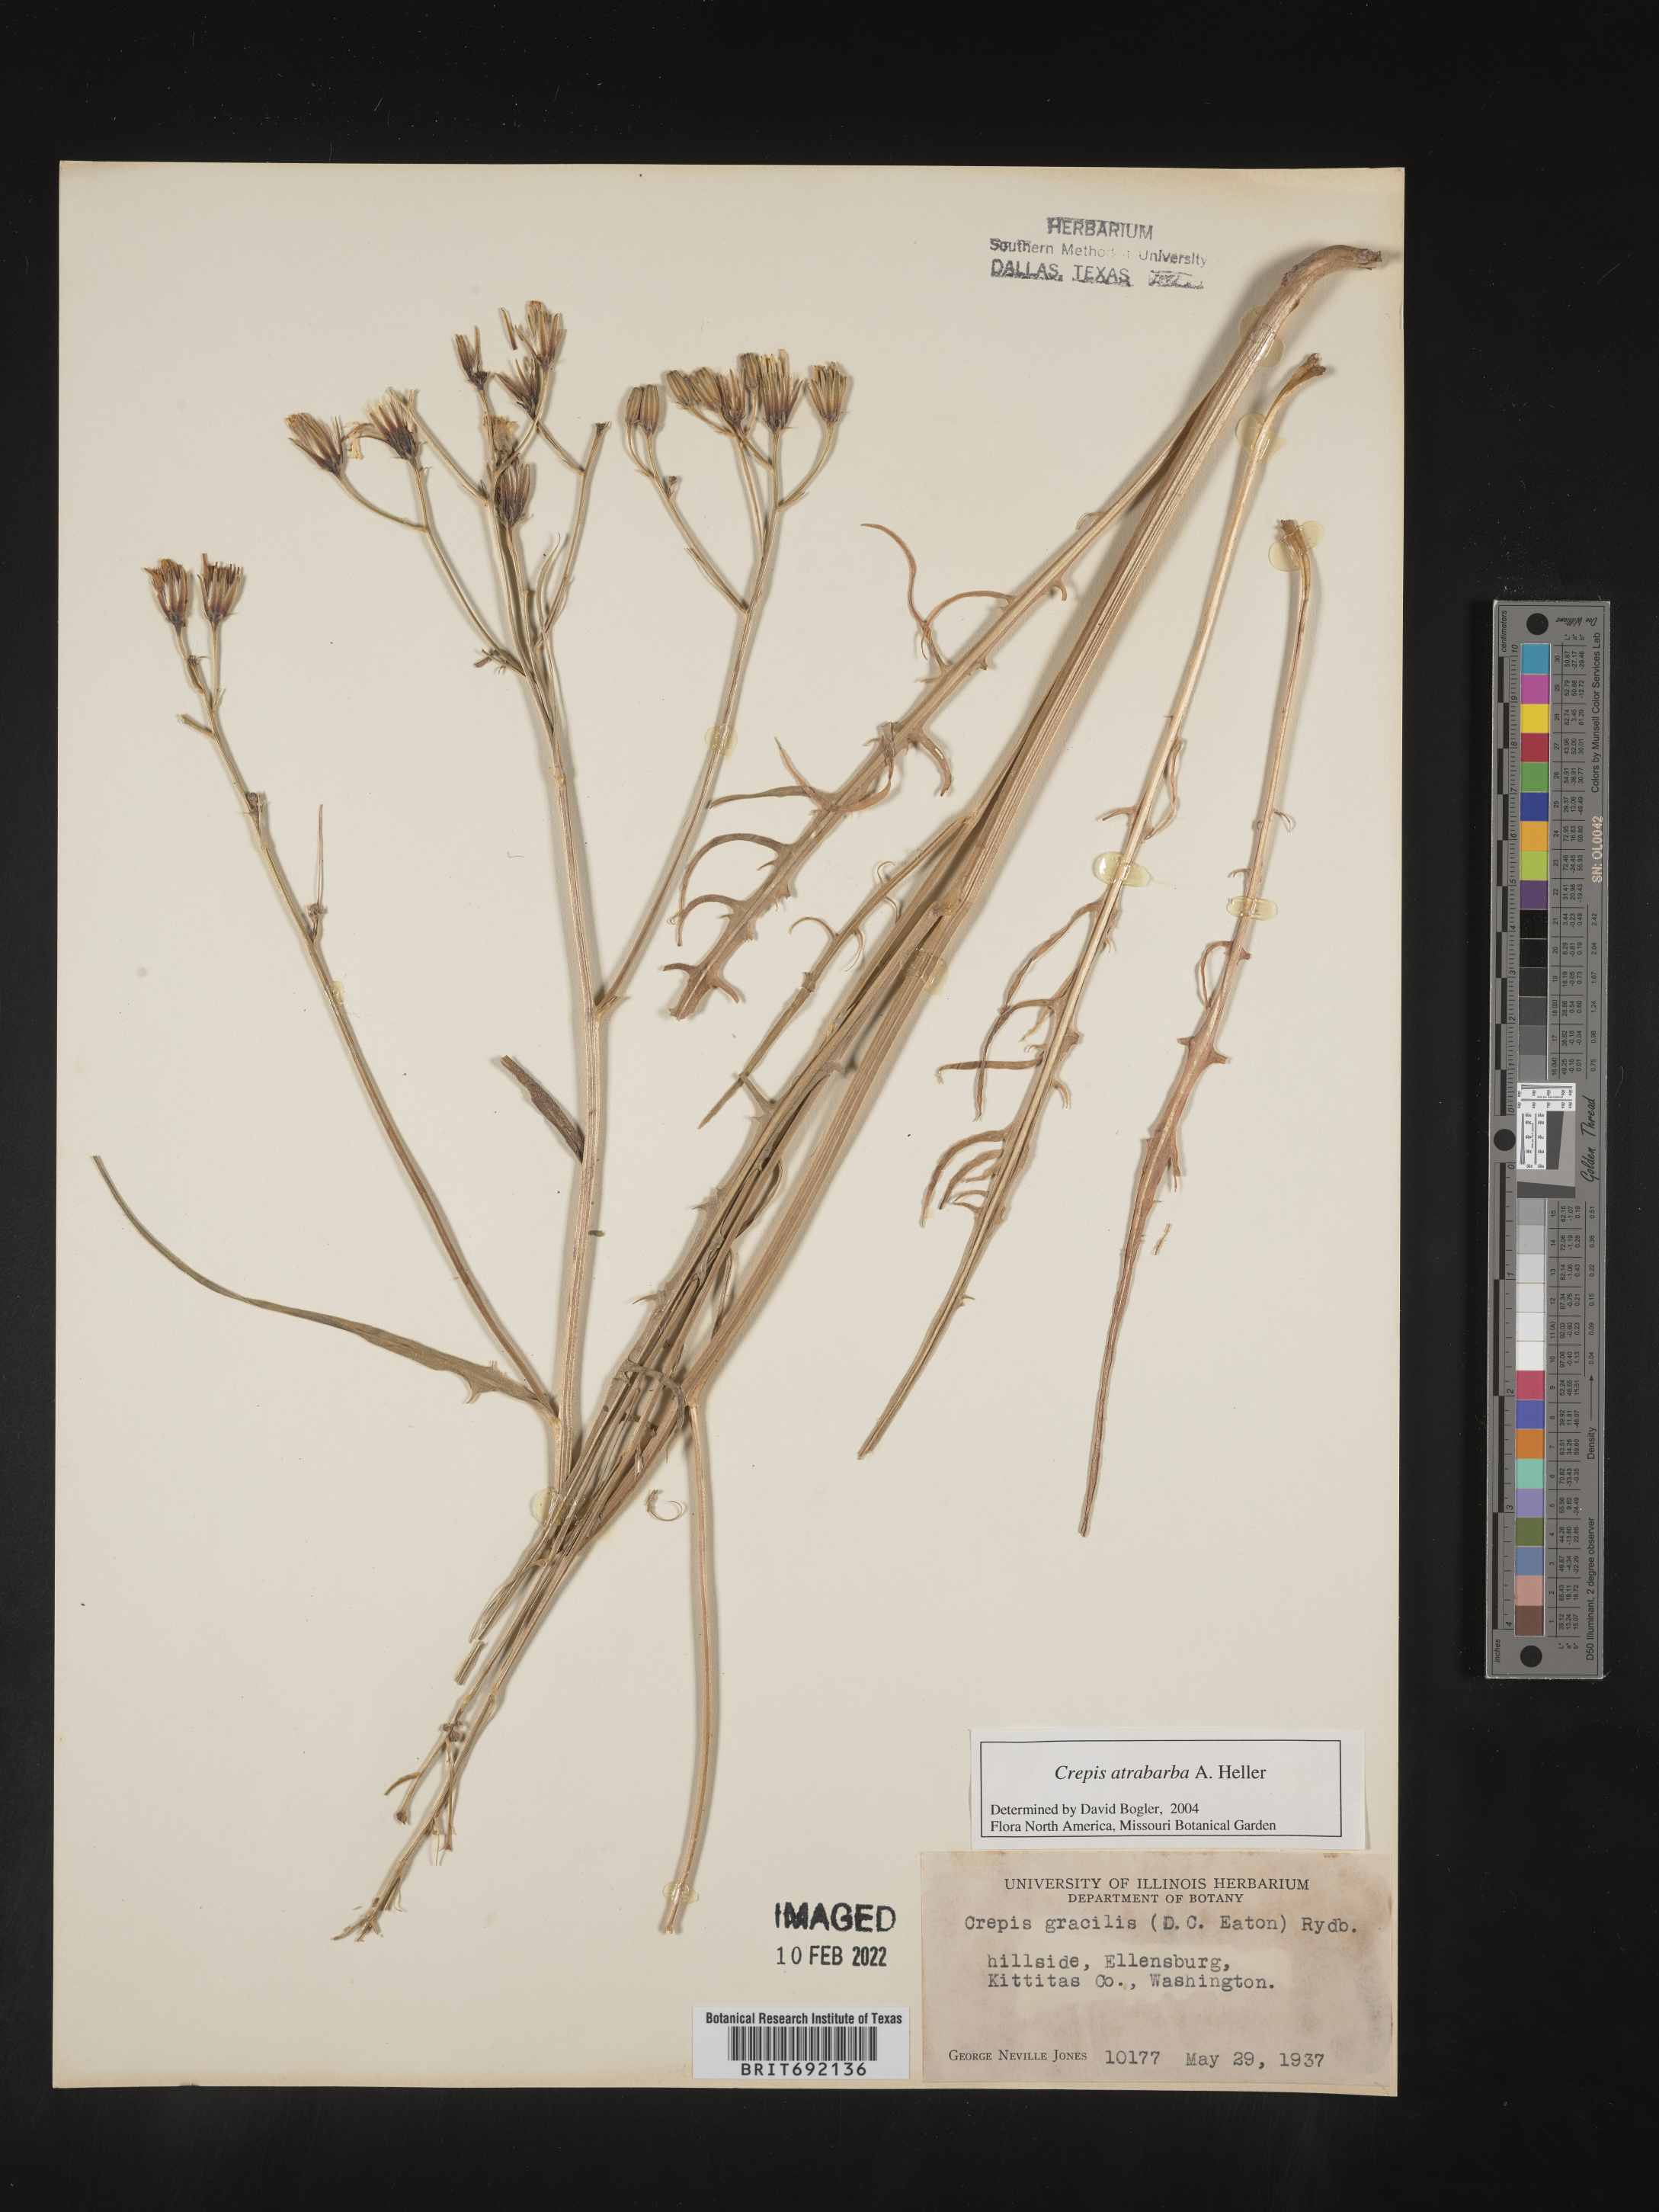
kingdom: Plantae
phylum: Tracheophyta
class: Magnoliopsida
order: Asterales
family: Asteraceae
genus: Crepis
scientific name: Crepis
